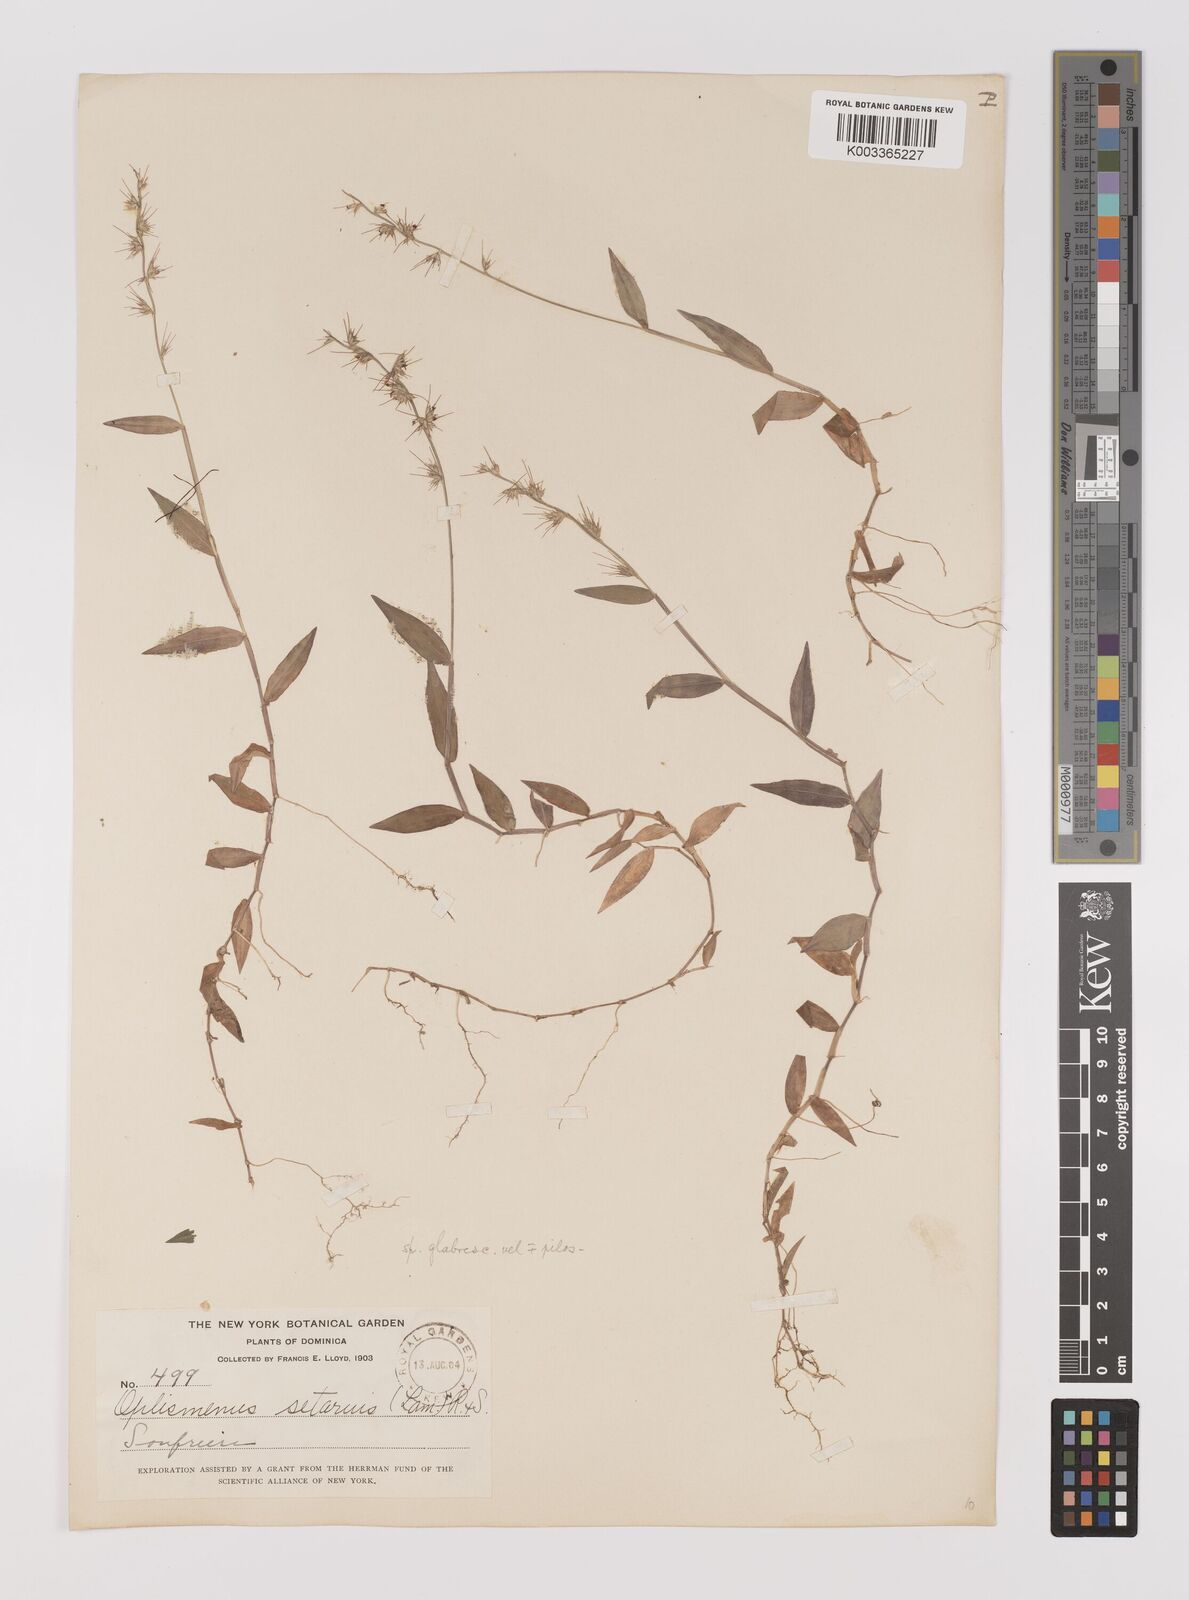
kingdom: Plantae
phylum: Tracheophyta
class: Liliopsida
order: Poales
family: Poaceae
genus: Oplismenus
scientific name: Oplismenus hirtellus
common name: Basketgrass
